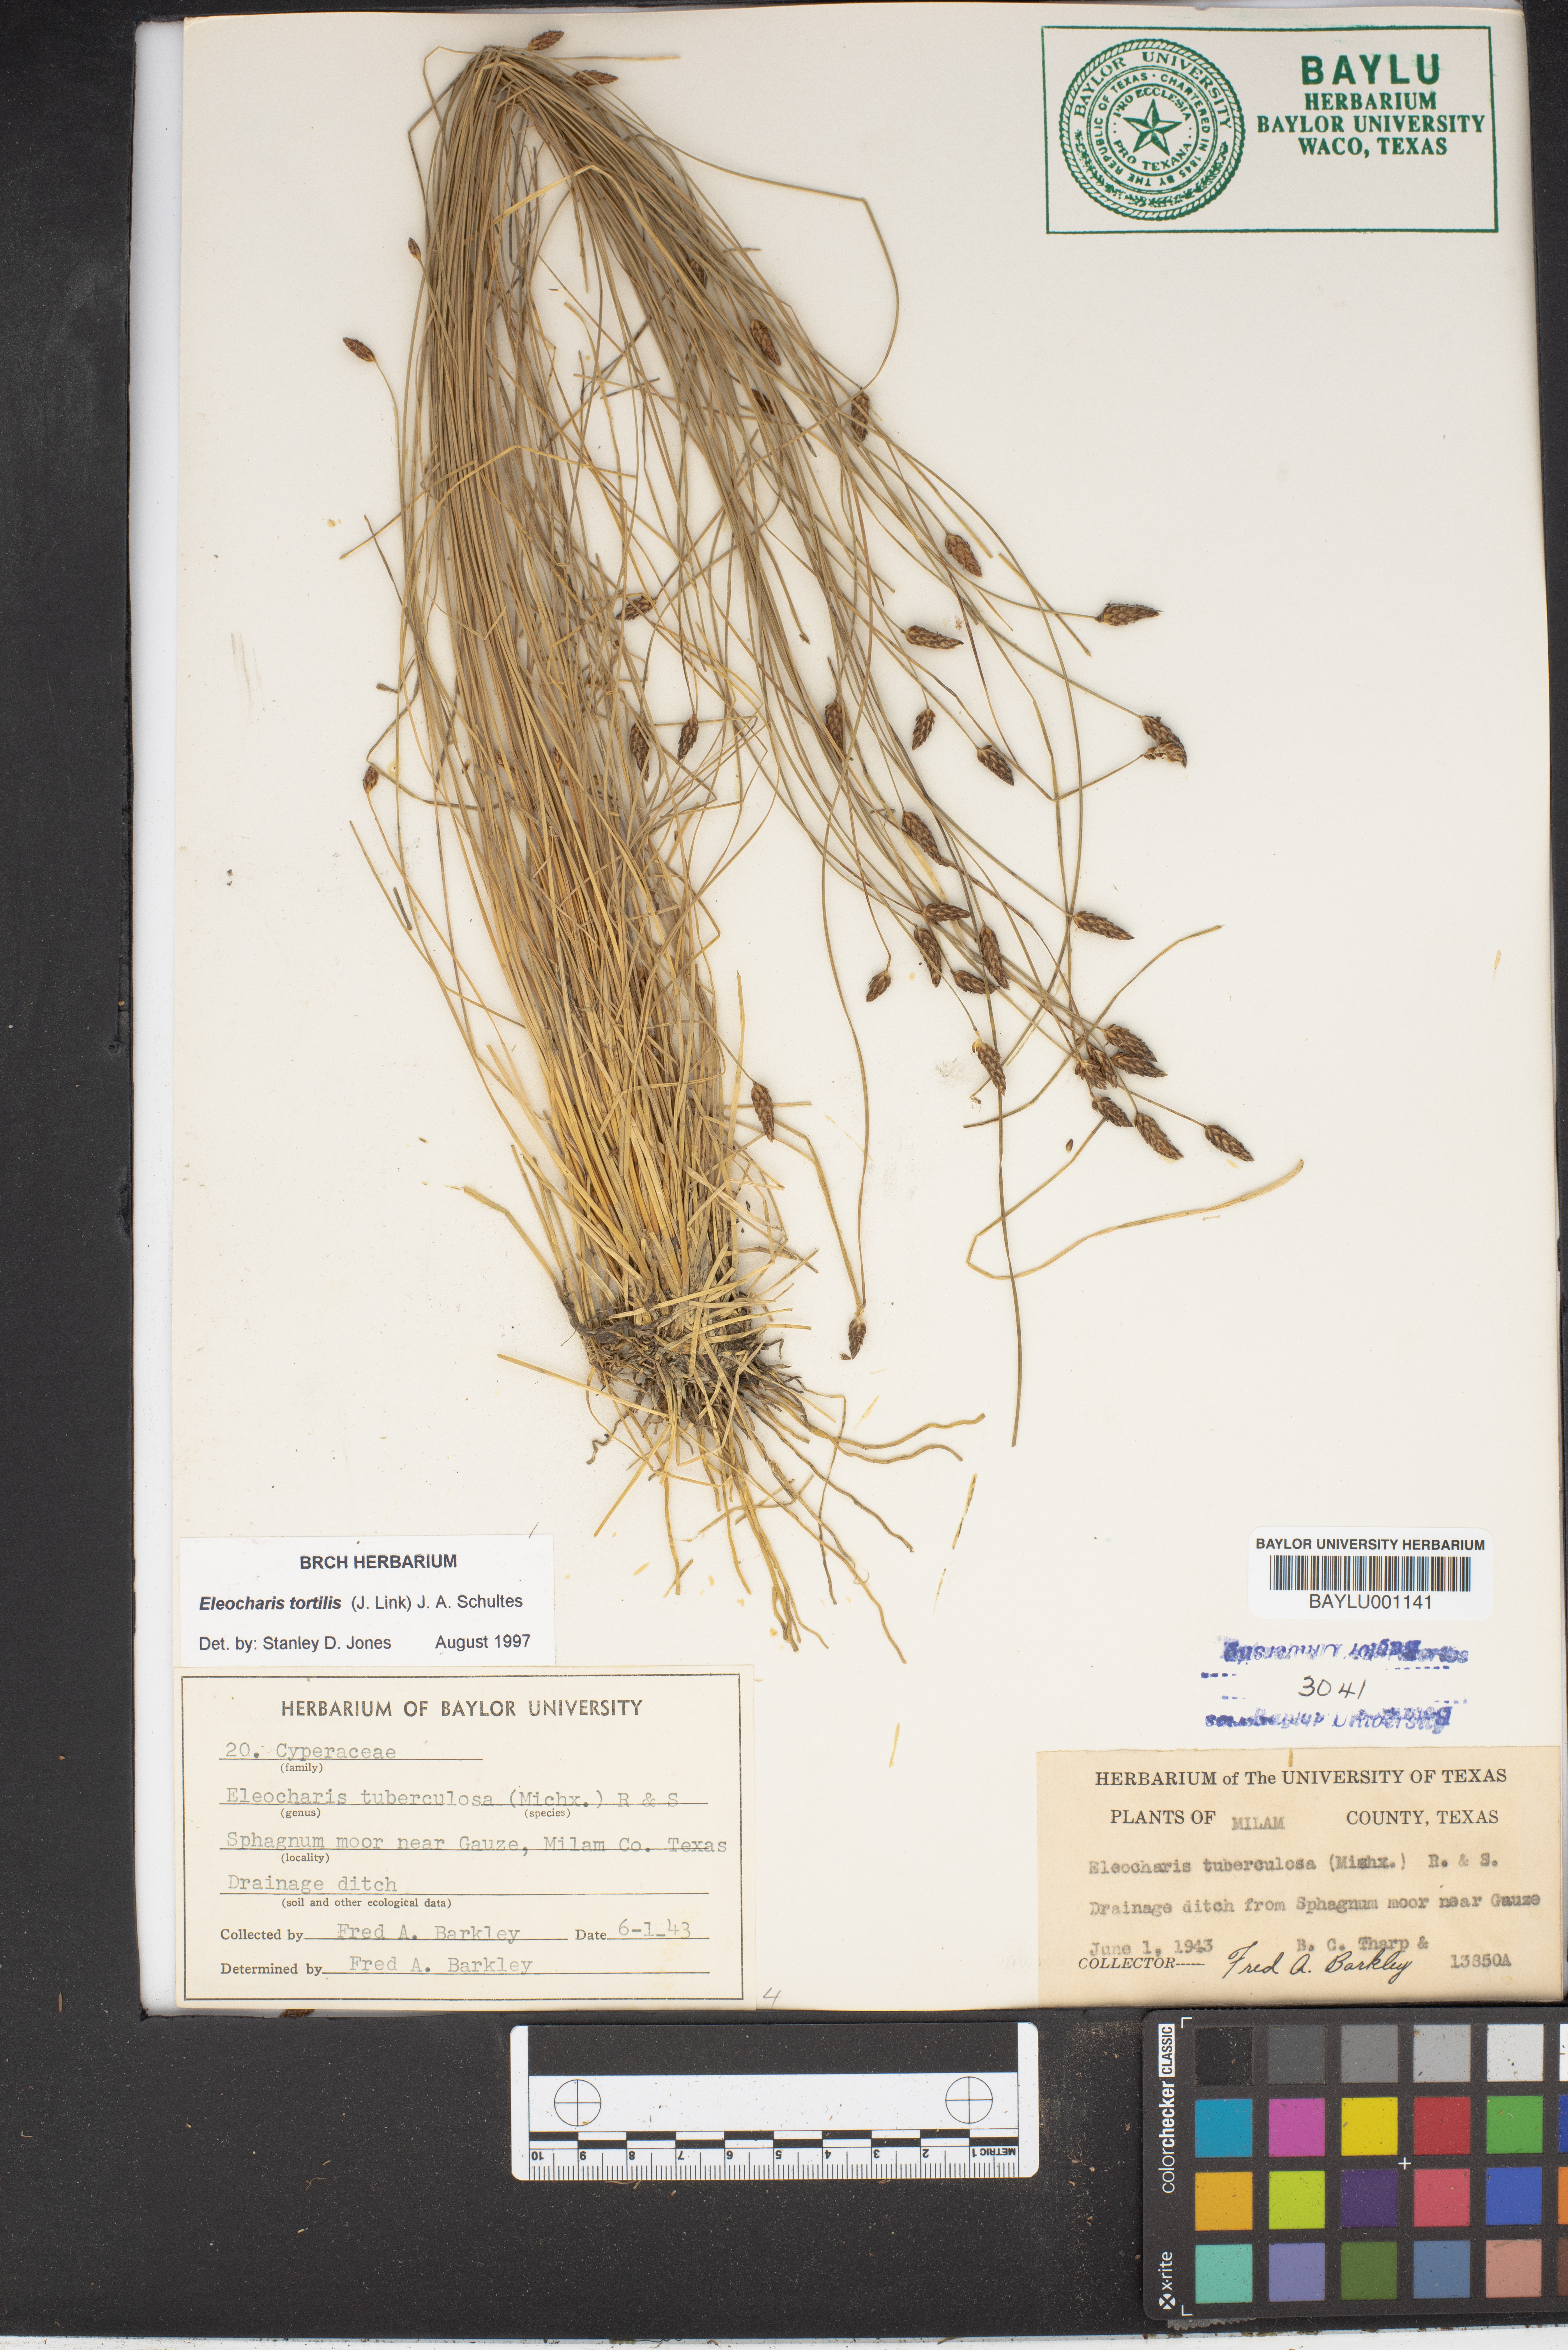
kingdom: Plantae
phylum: Tracheophyta
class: Liliopsida
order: Poales
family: Cyperaceae
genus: Eleocharis
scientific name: Eleocharis tuberculosa
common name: Cone-cup spikerush
